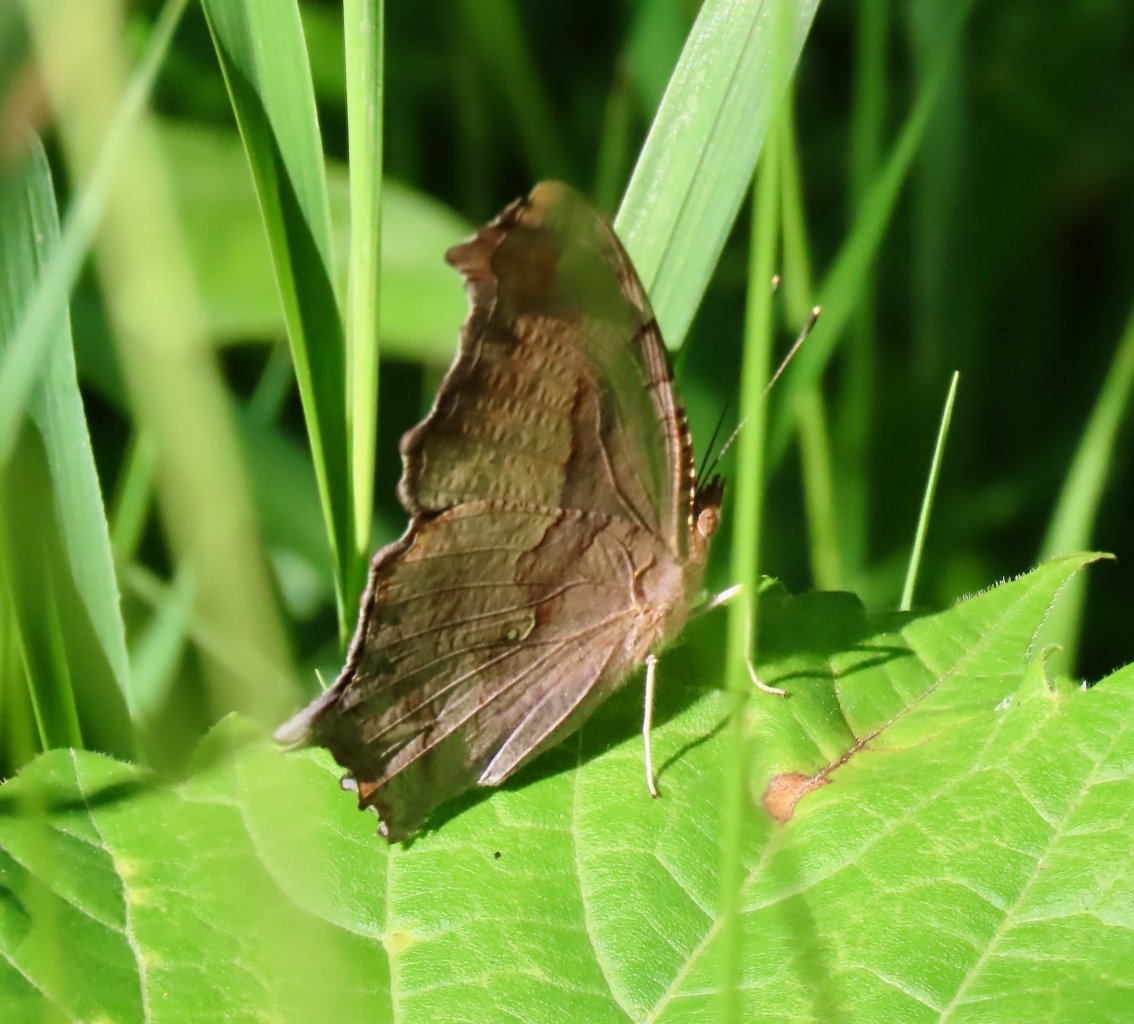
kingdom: Animalia
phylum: Arthropoda
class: Insecta
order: Lepidoptera
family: Nymphalidae
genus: Polygonia
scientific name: Polygonia interrogationis
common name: Question Mark
